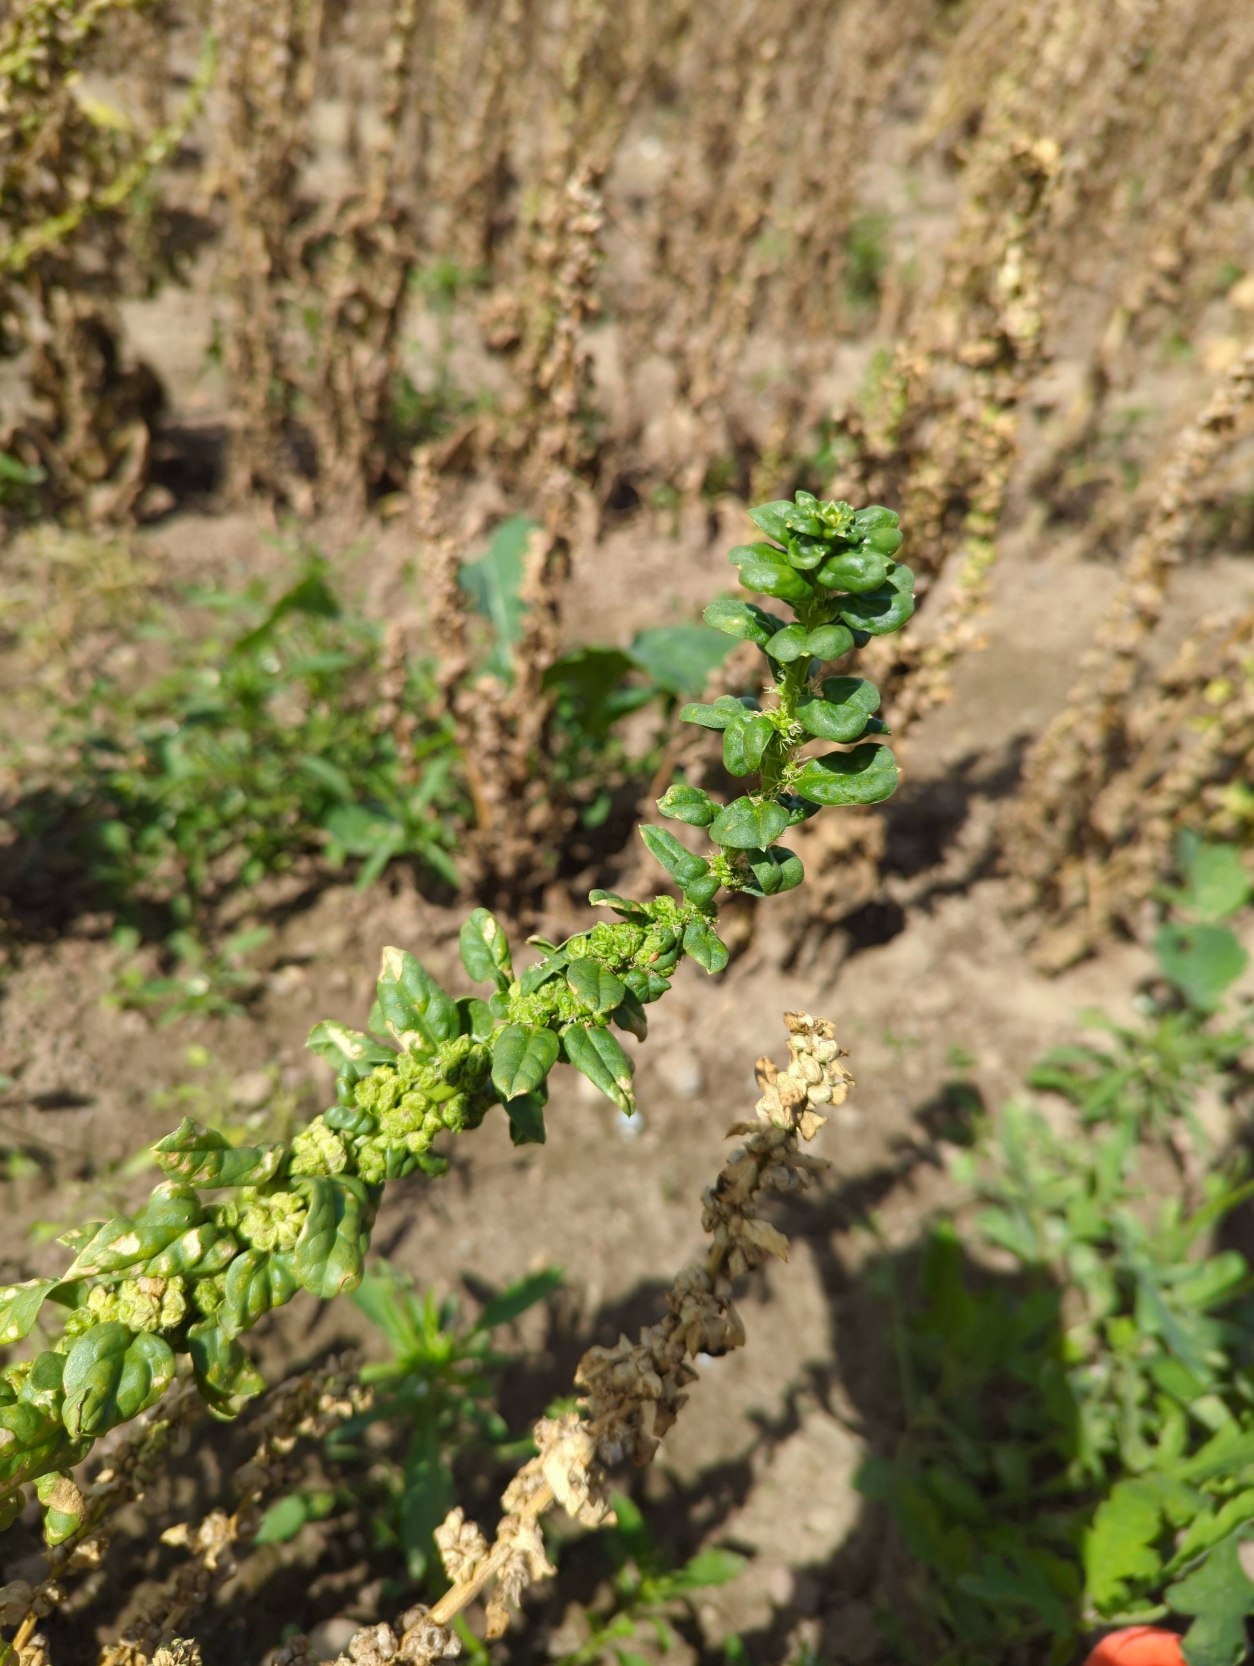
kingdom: Plantae
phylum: Tracheophyta
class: Magnoliopsida
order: Caryophyllales
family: Amaranthaceae
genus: Spinacia
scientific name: Spinacia oleracea
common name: Spinat
